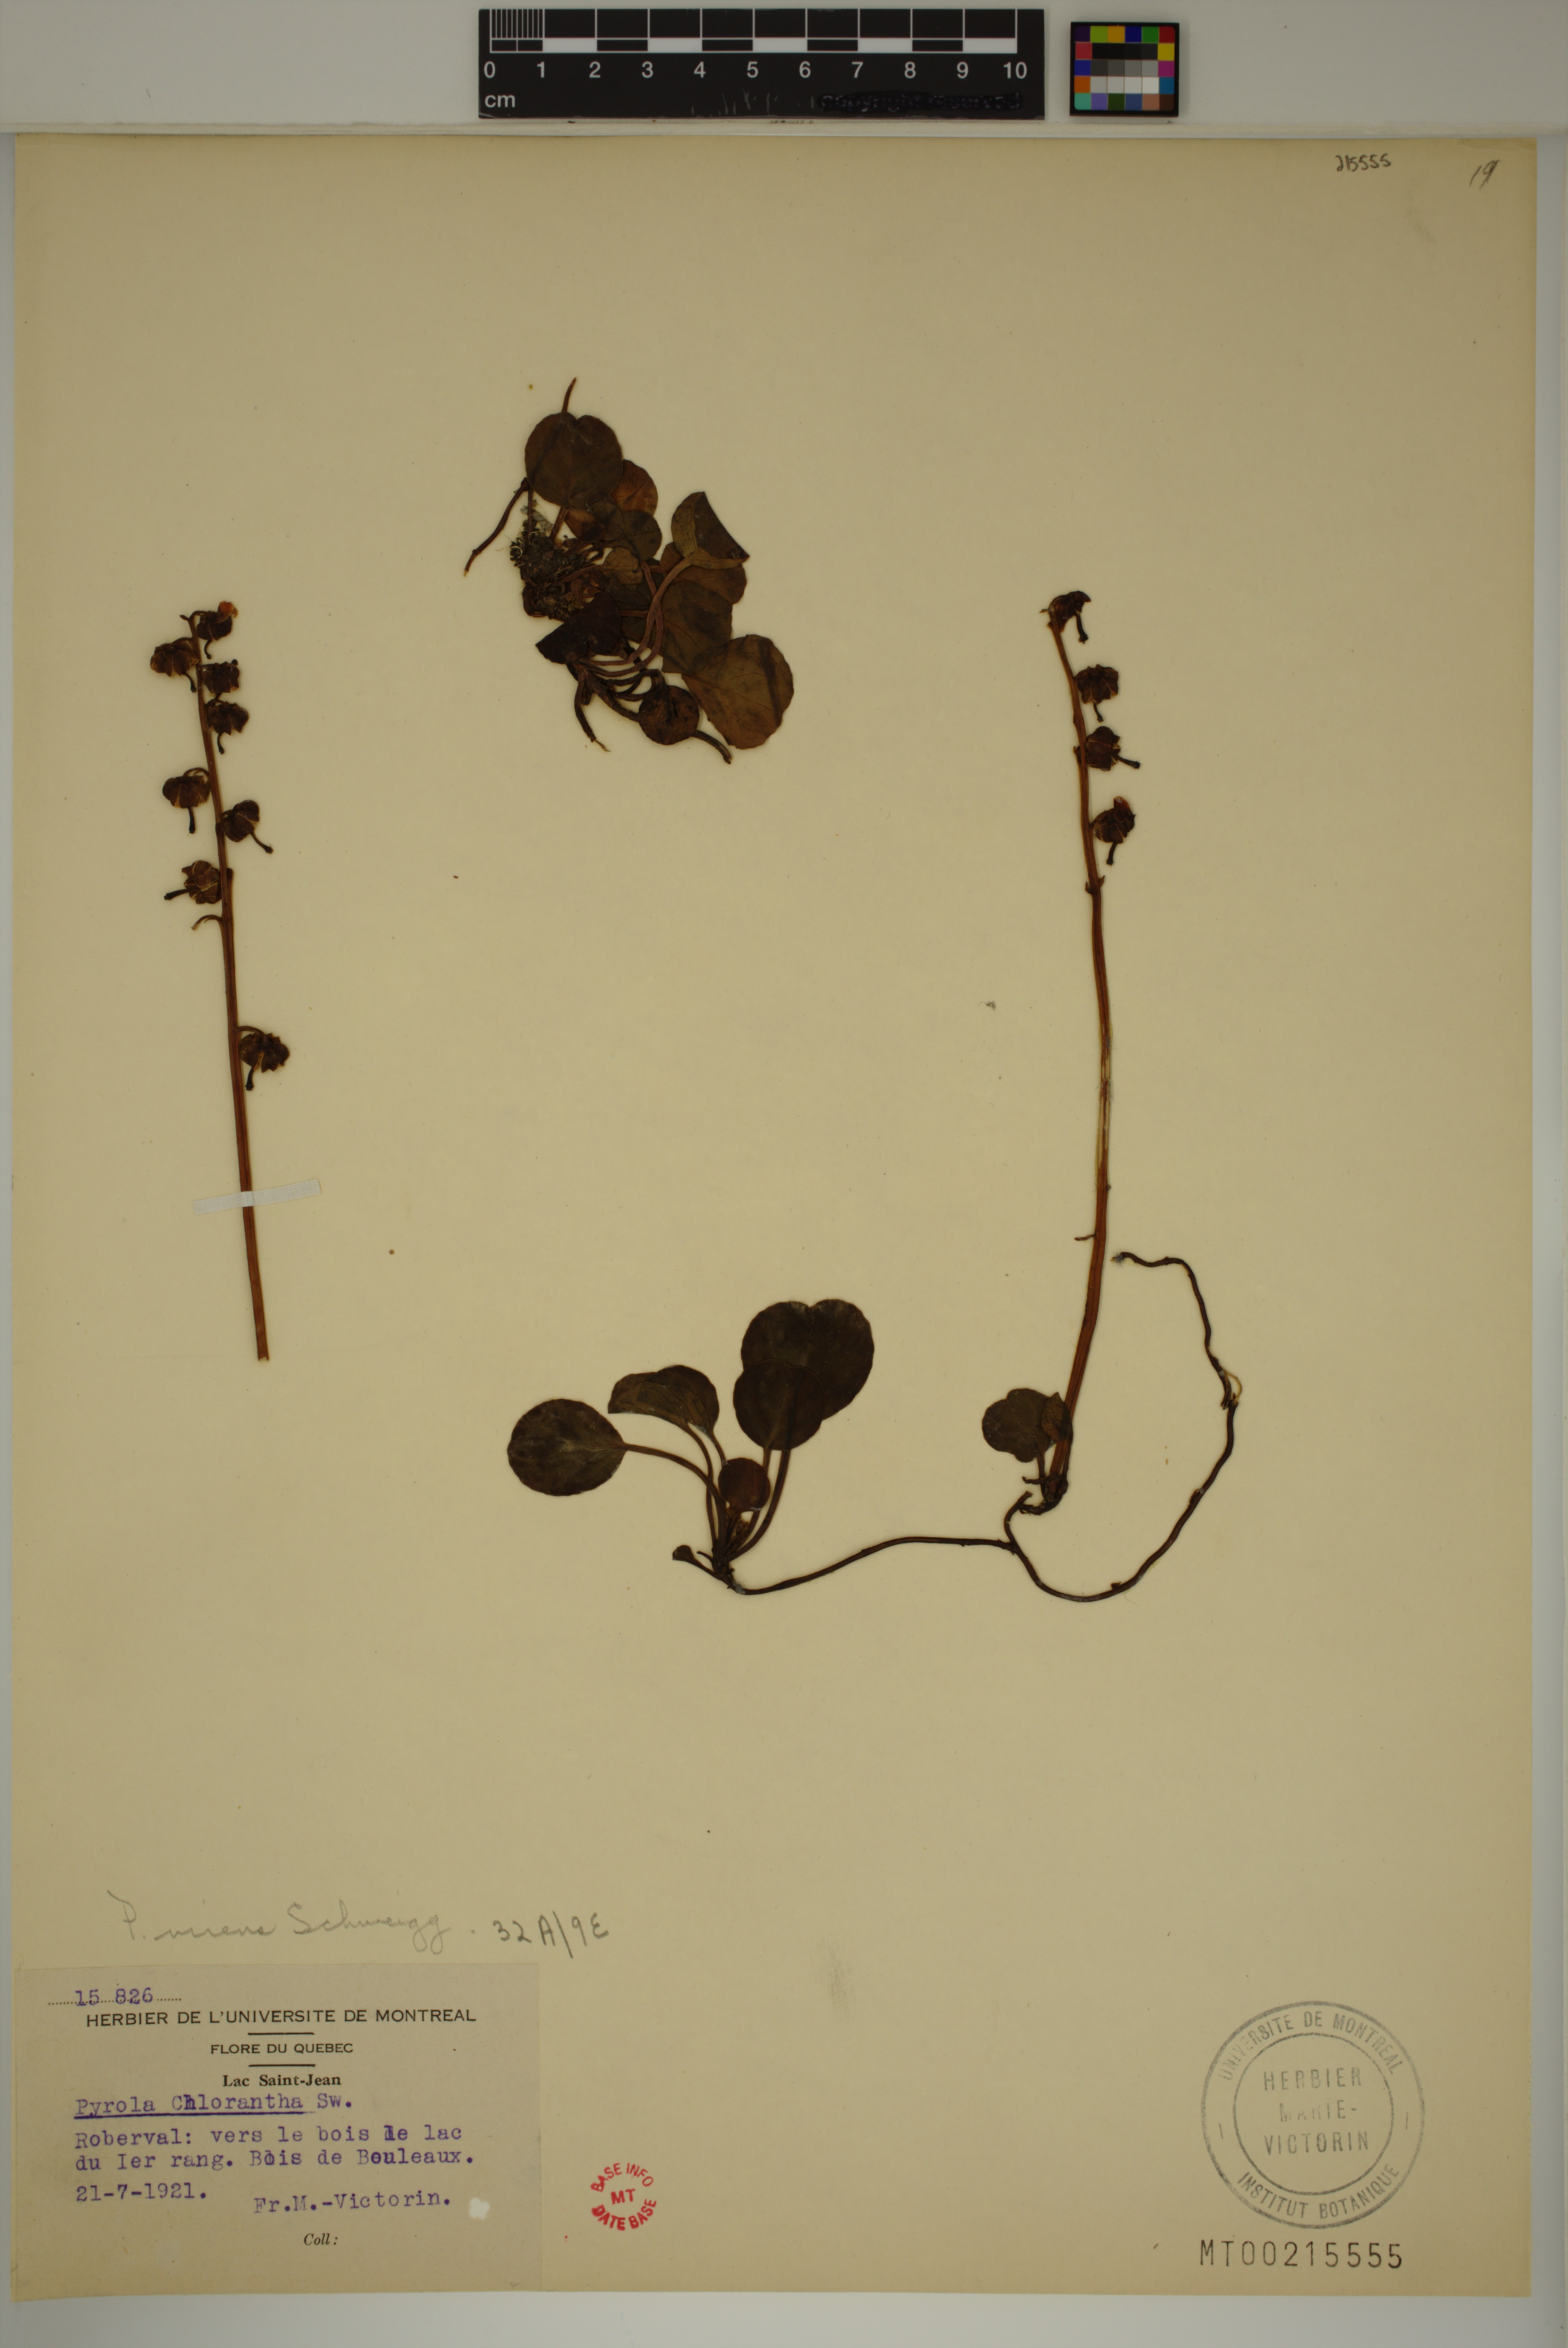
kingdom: Plantae
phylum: Tracheophyta
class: Magnoliopsida
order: Ericales
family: Ericaceae
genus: Pyrola
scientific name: Pyrola chlorantha
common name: Green wintergreen
